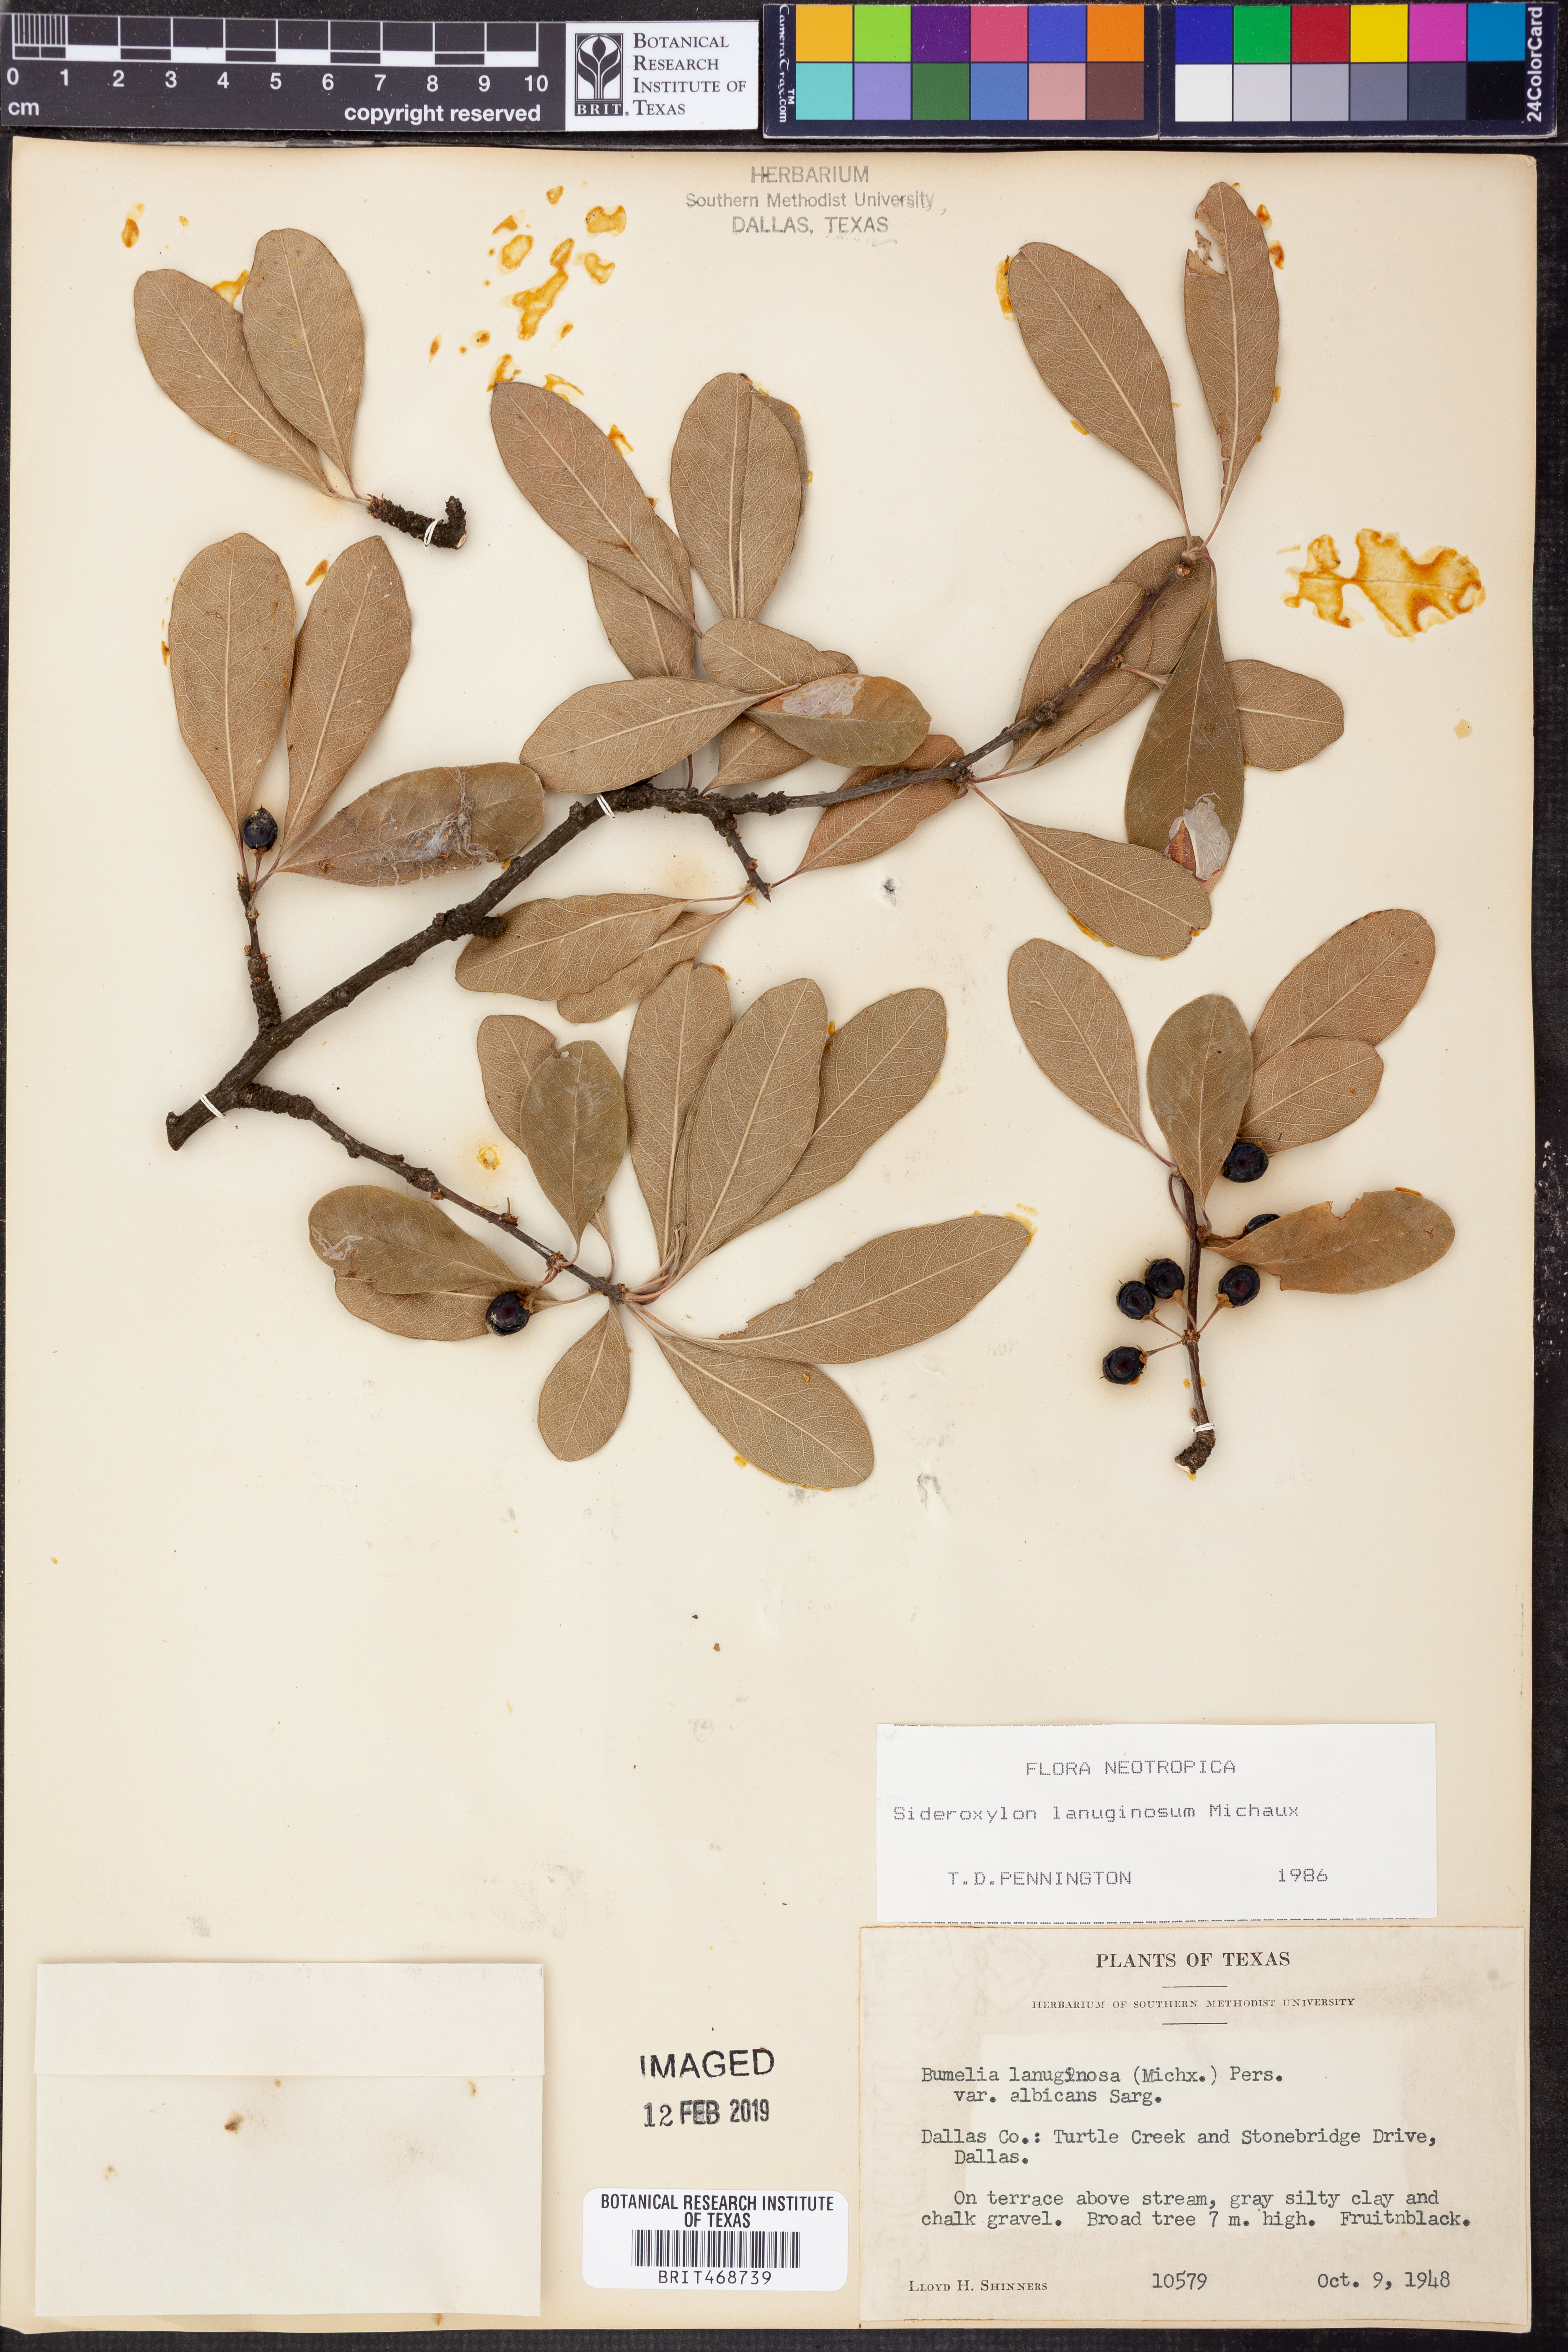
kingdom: Plantae
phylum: Tracheophyta
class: Magnoliopsida
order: Ericales
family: Sapotaceae
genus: Sideroxylon
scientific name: Sideroxylon lanuginosum
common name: Chittamwood
